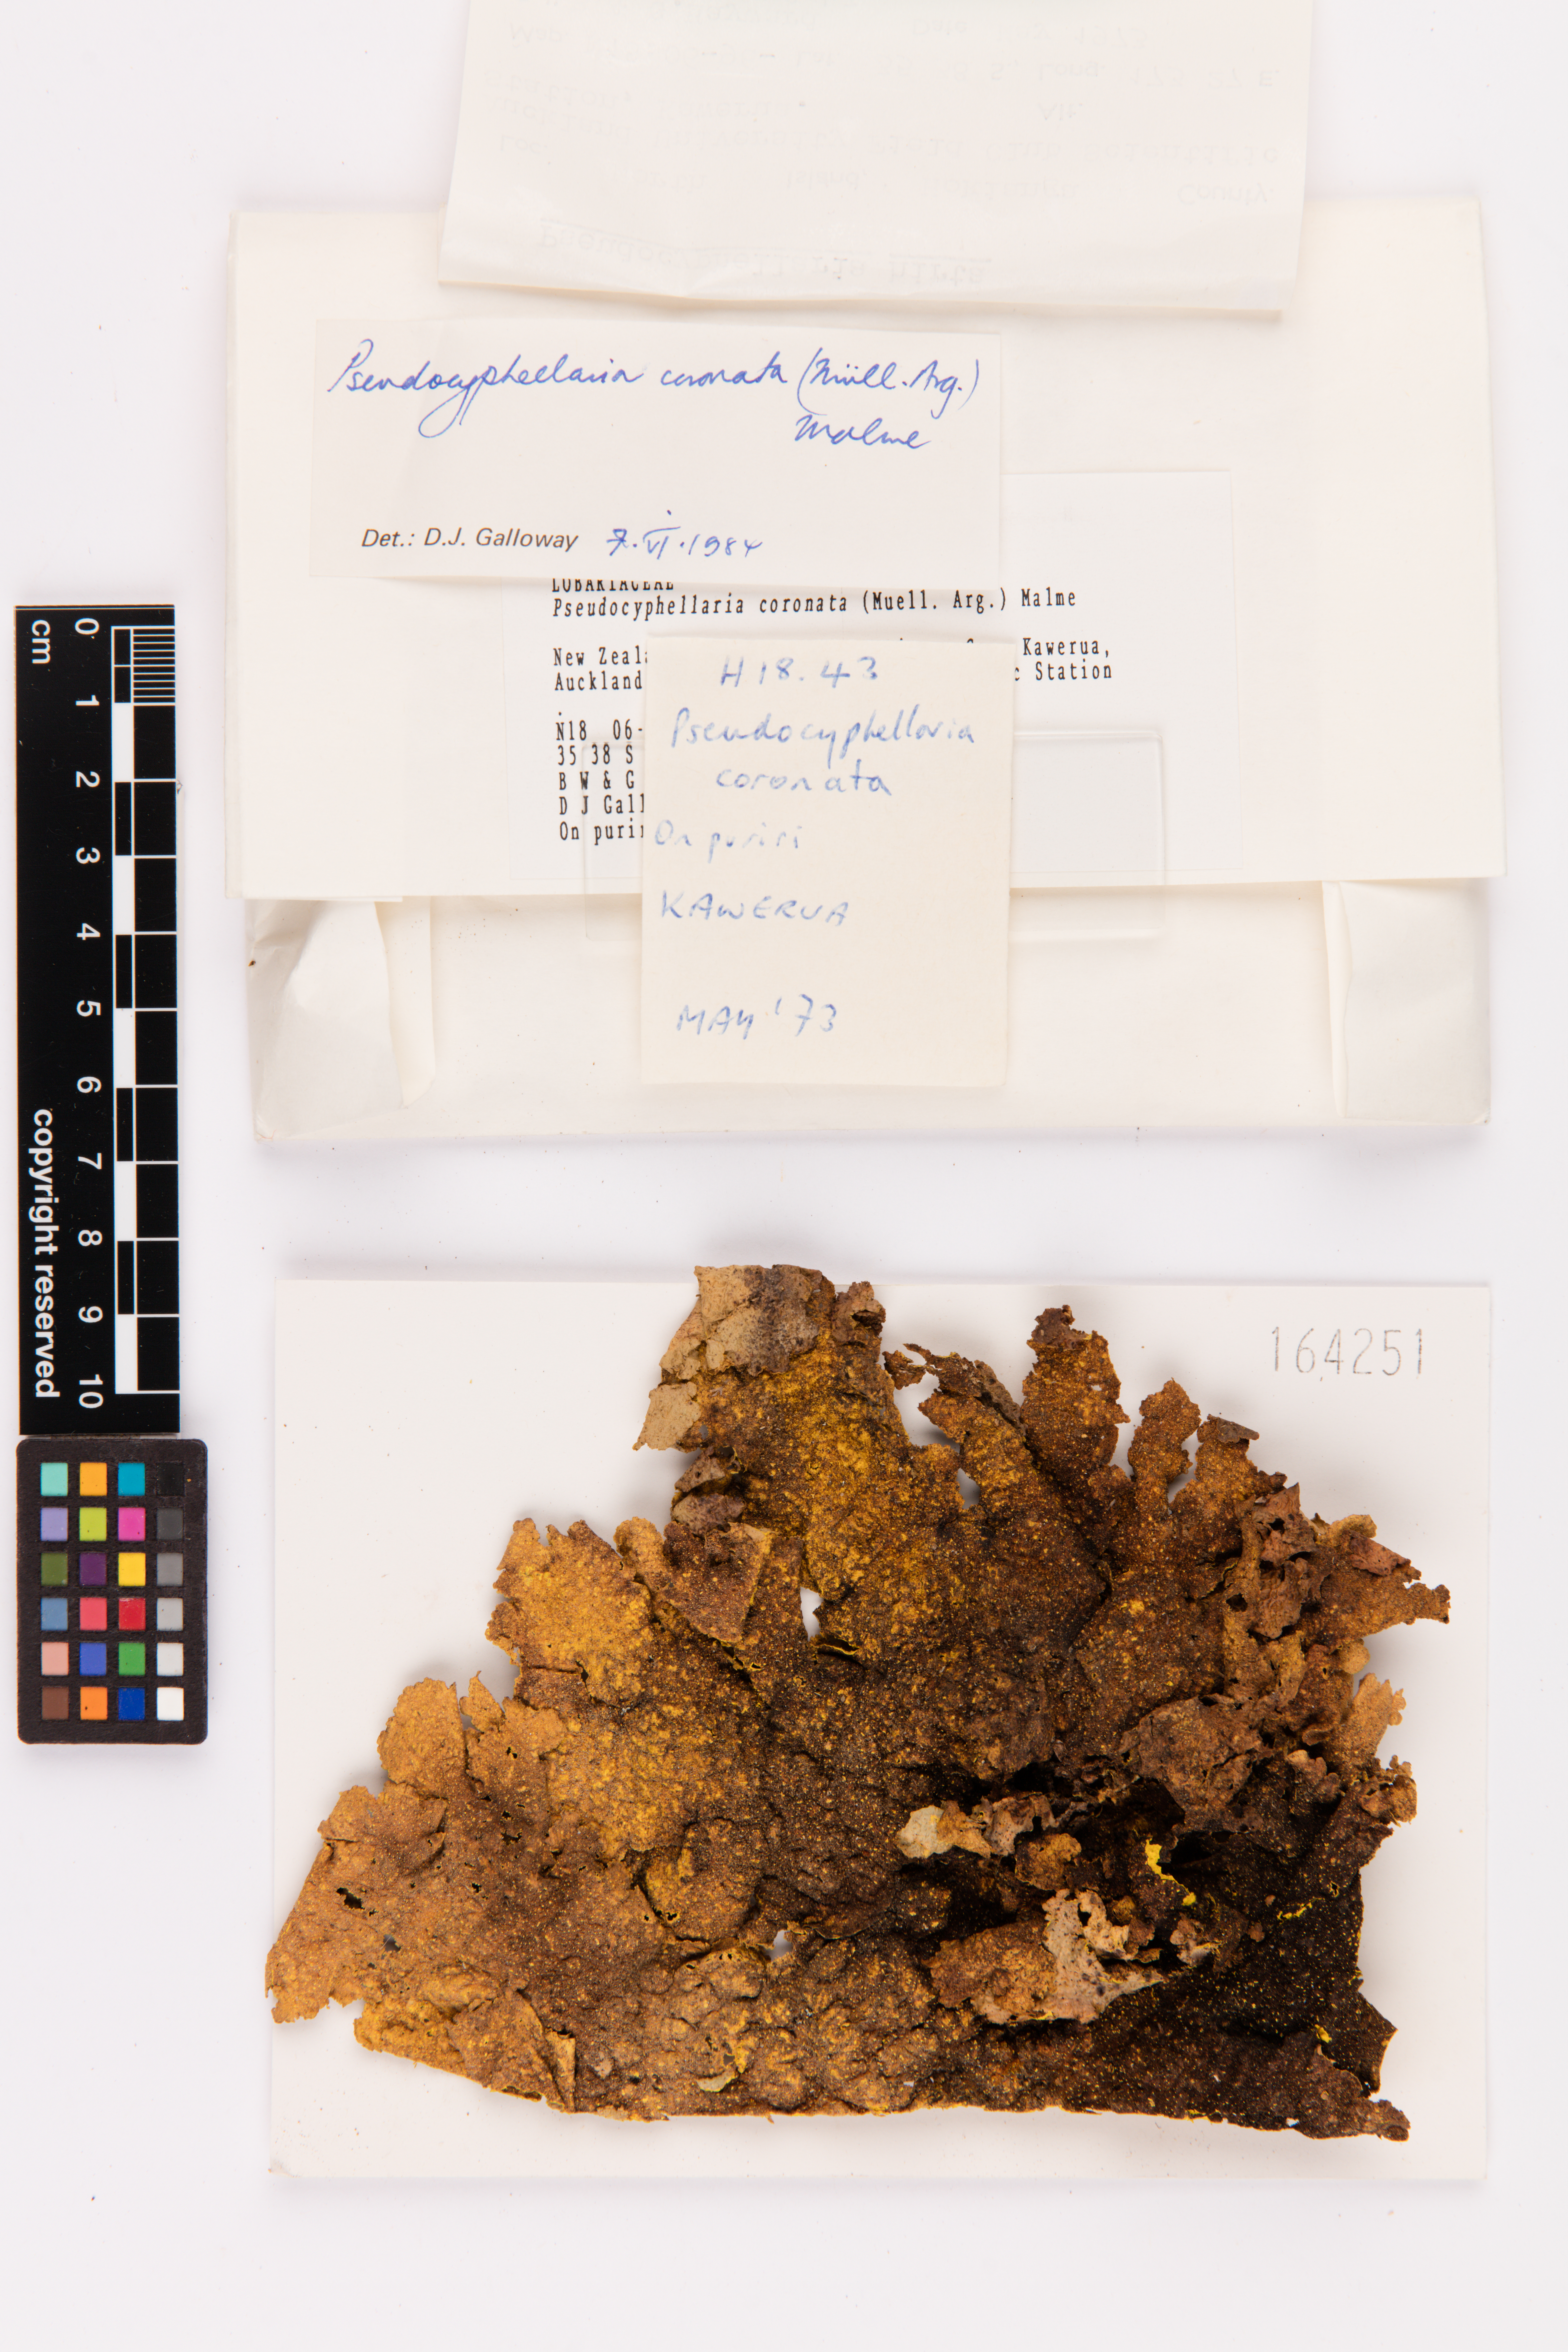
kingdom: Fungi
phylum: Ascomycota
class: Lecanoromycetes
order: Peltigerales
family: Lobariaceae
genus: Yarrumia
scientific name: Yarrumia coronata
